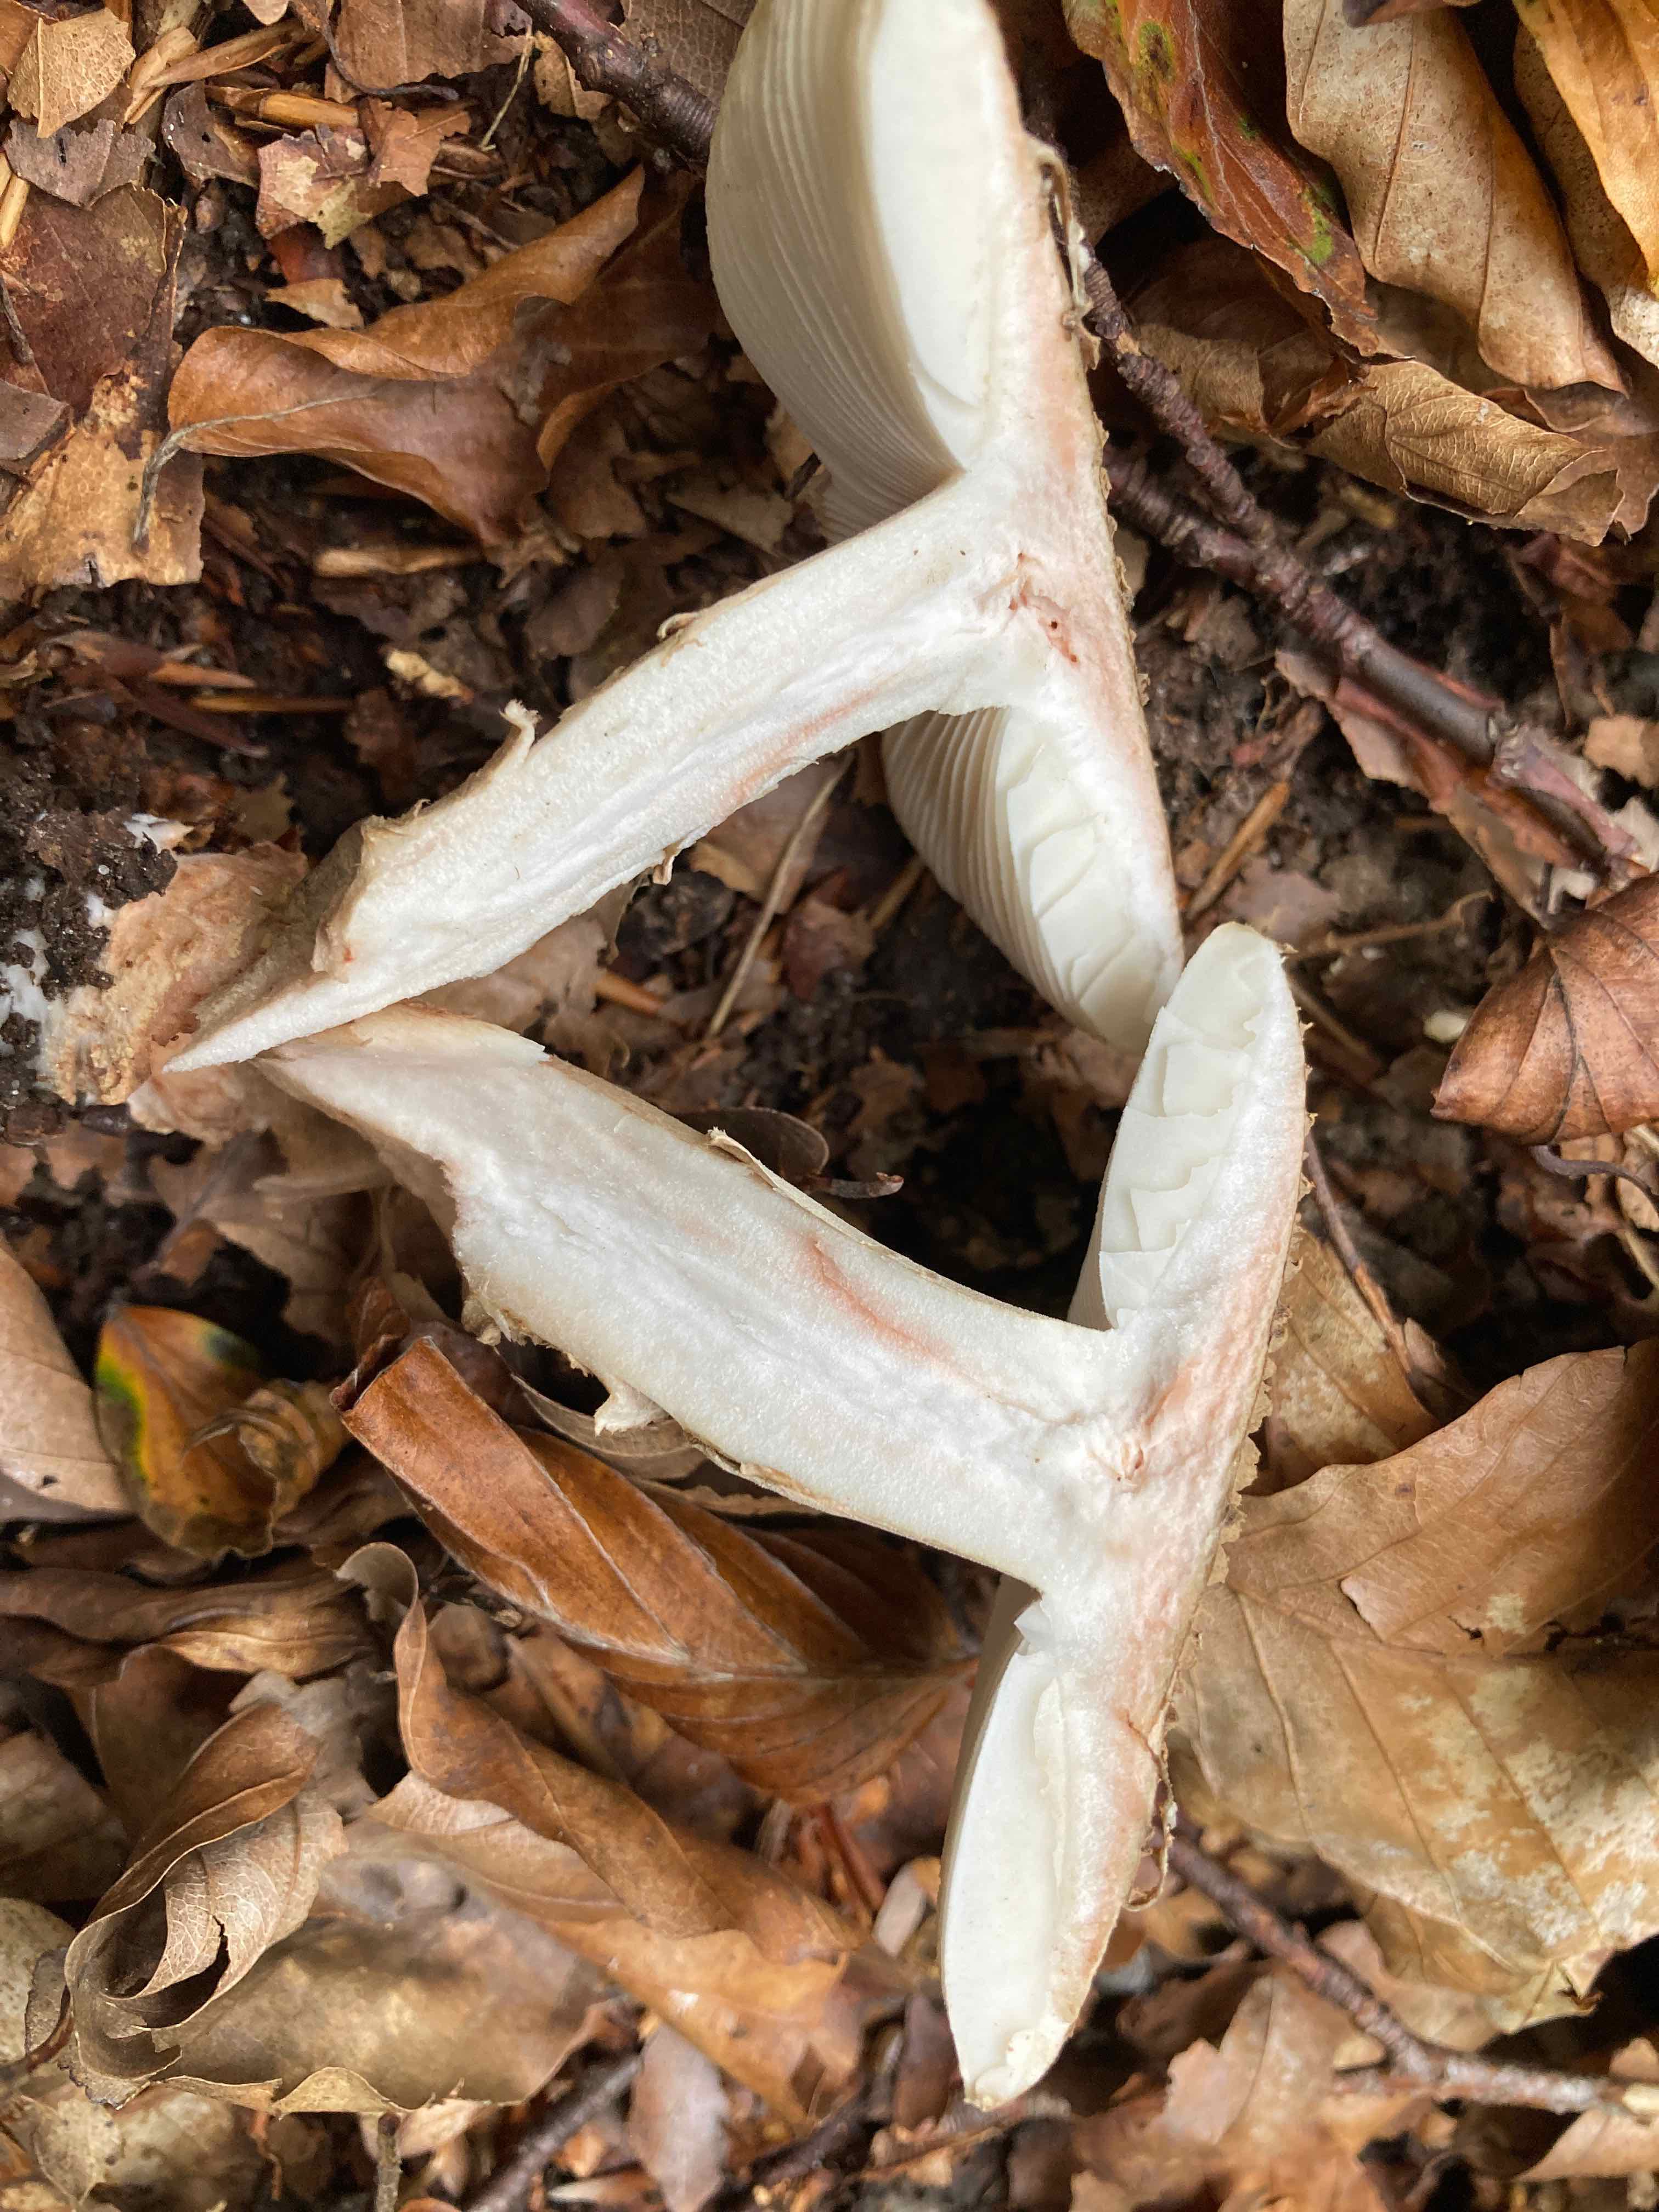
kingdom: Fungi
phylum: Basidiomycota
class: Agaricomycetes
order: Agaricales
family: Amanitaceae
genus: Amanita
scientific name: Amanita rubescens
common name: rødmende fluesvamp
